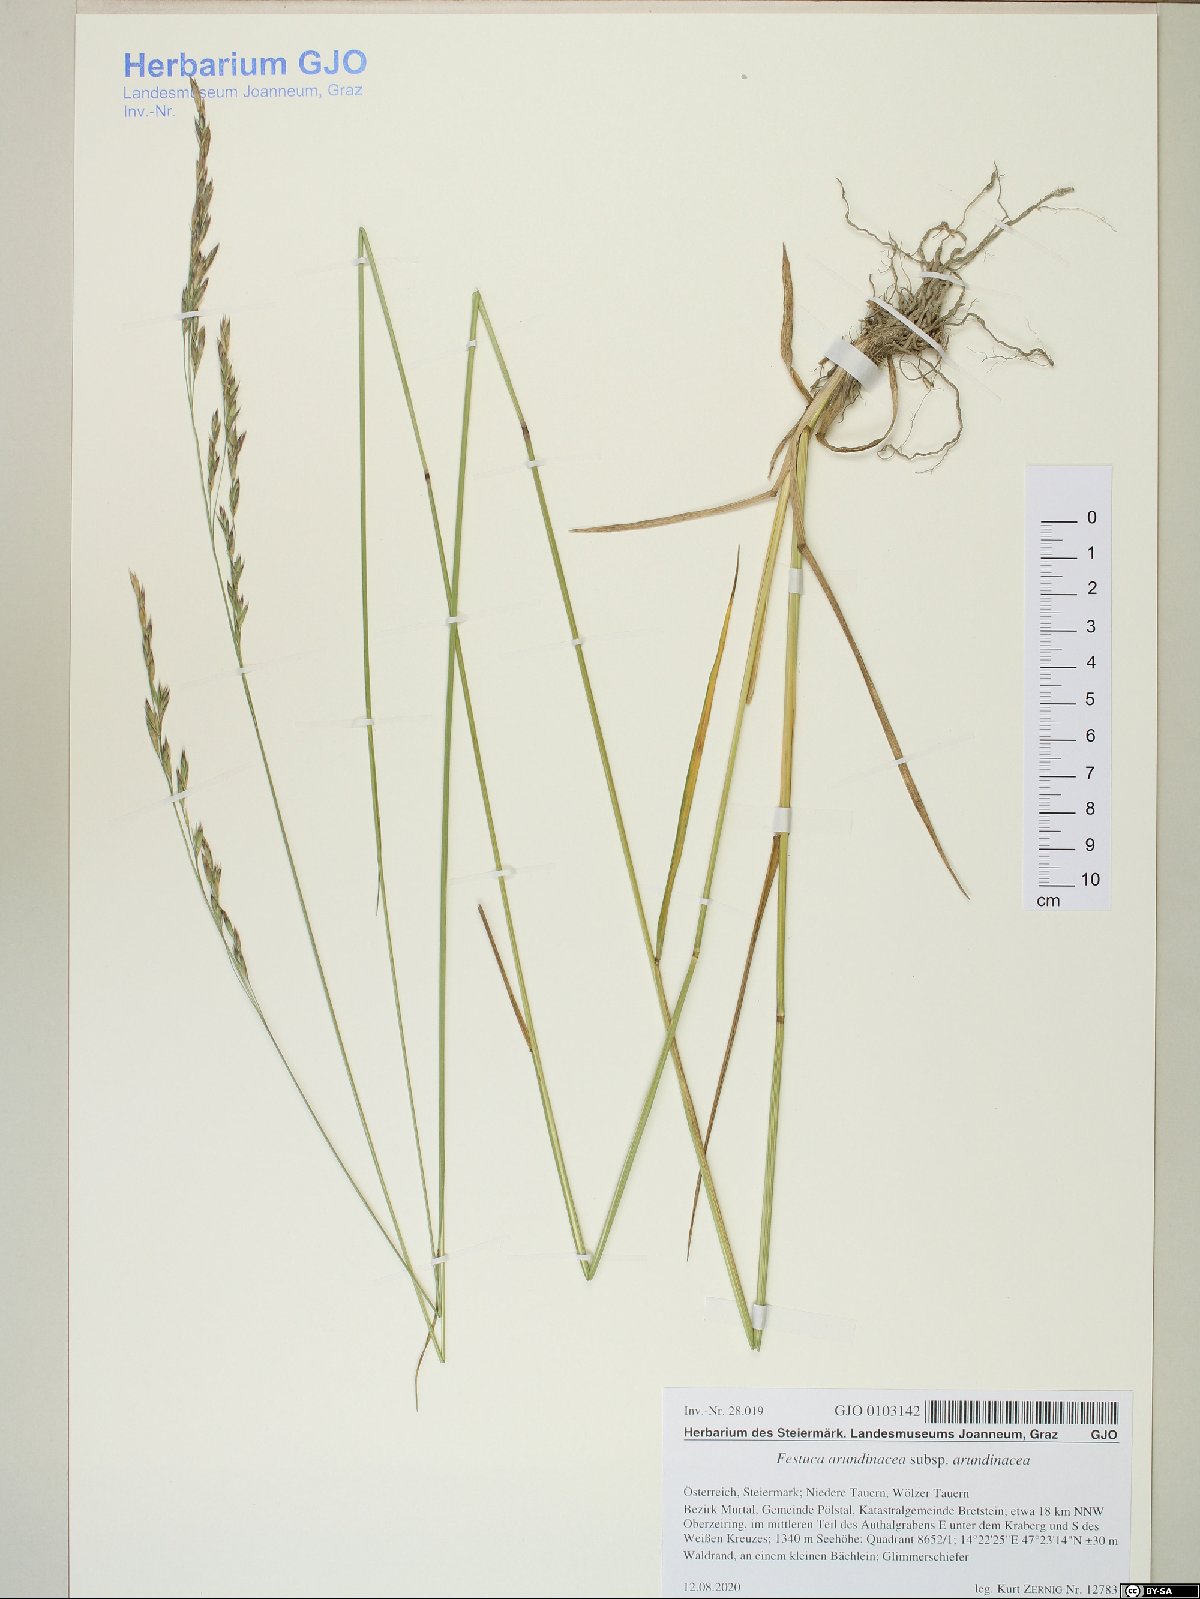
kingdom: Plantae
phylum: Tracheophyta
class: Liliopsida
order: Poales
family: Poaceae
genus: Lolium
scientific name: Lolium arundinaceum
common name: Reed fescue
